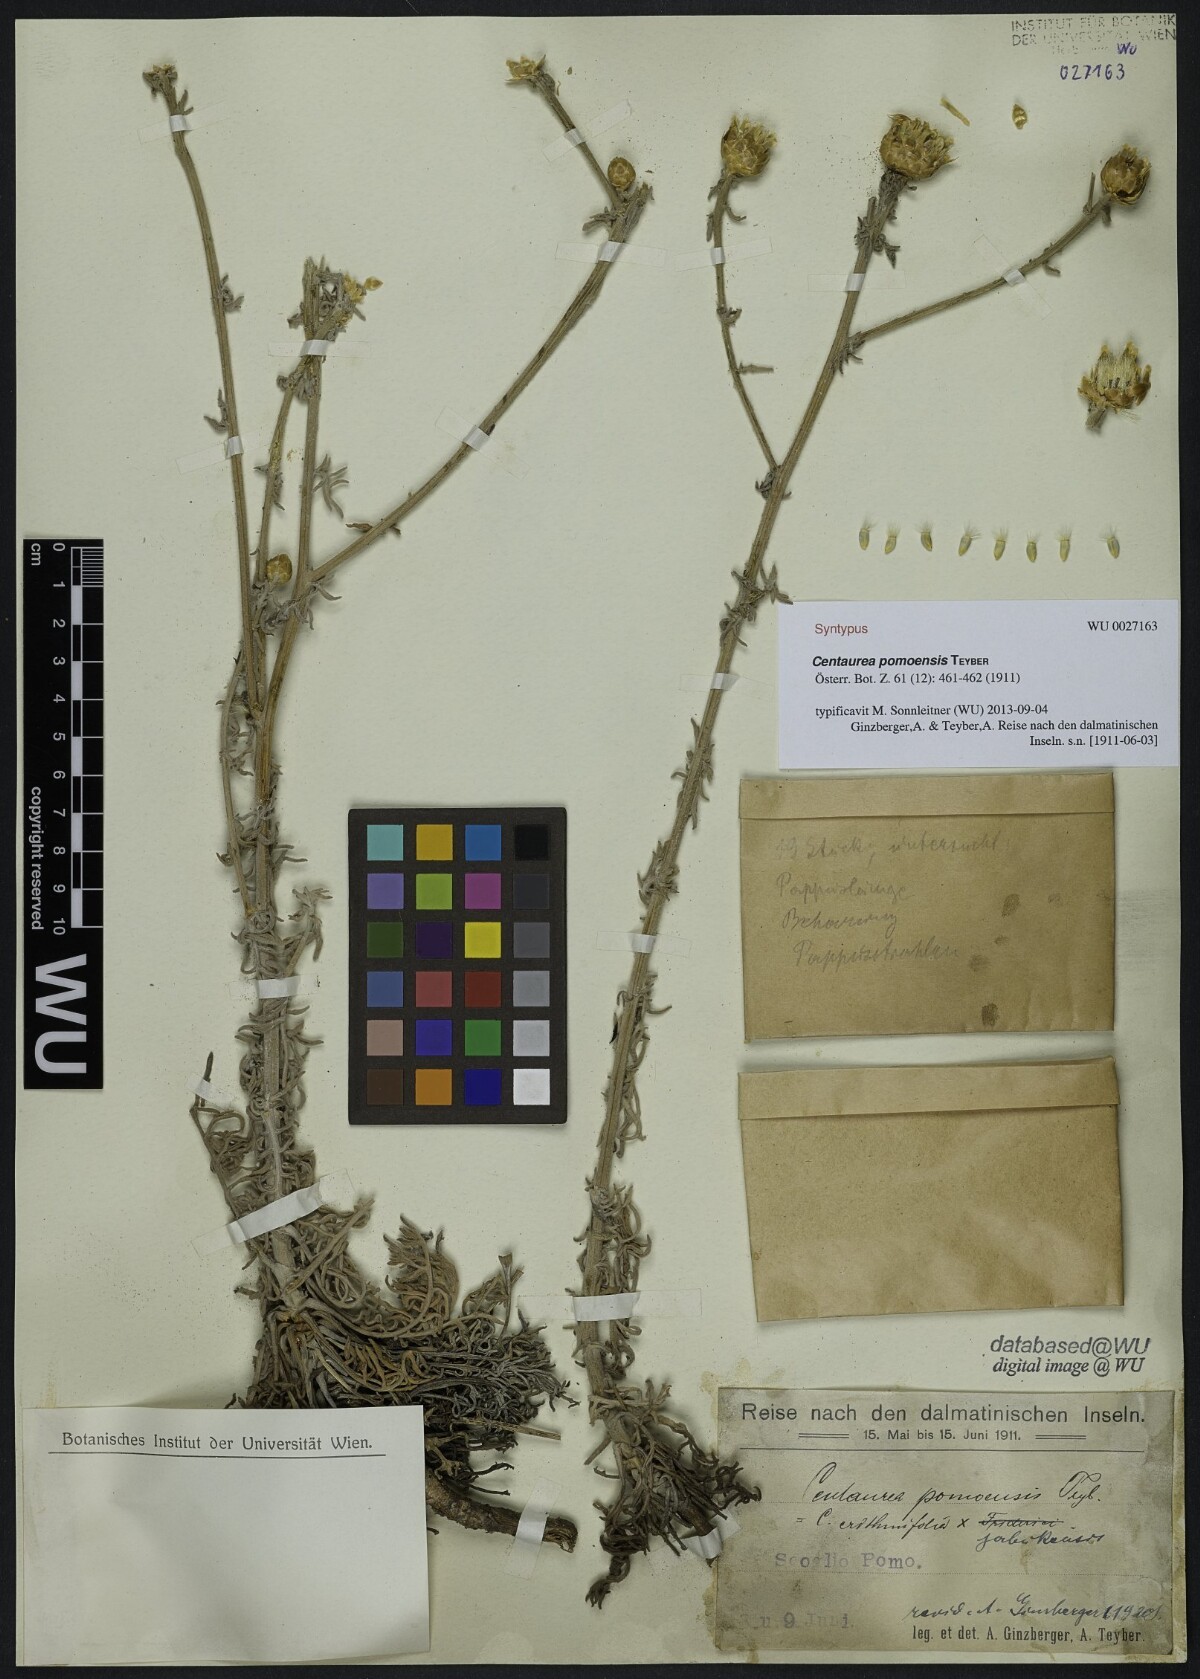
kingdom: Plantae
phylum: Tracheophyta
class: Magnoliopsida
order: Asterales
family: Asteraceae
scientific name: Asteraceae
